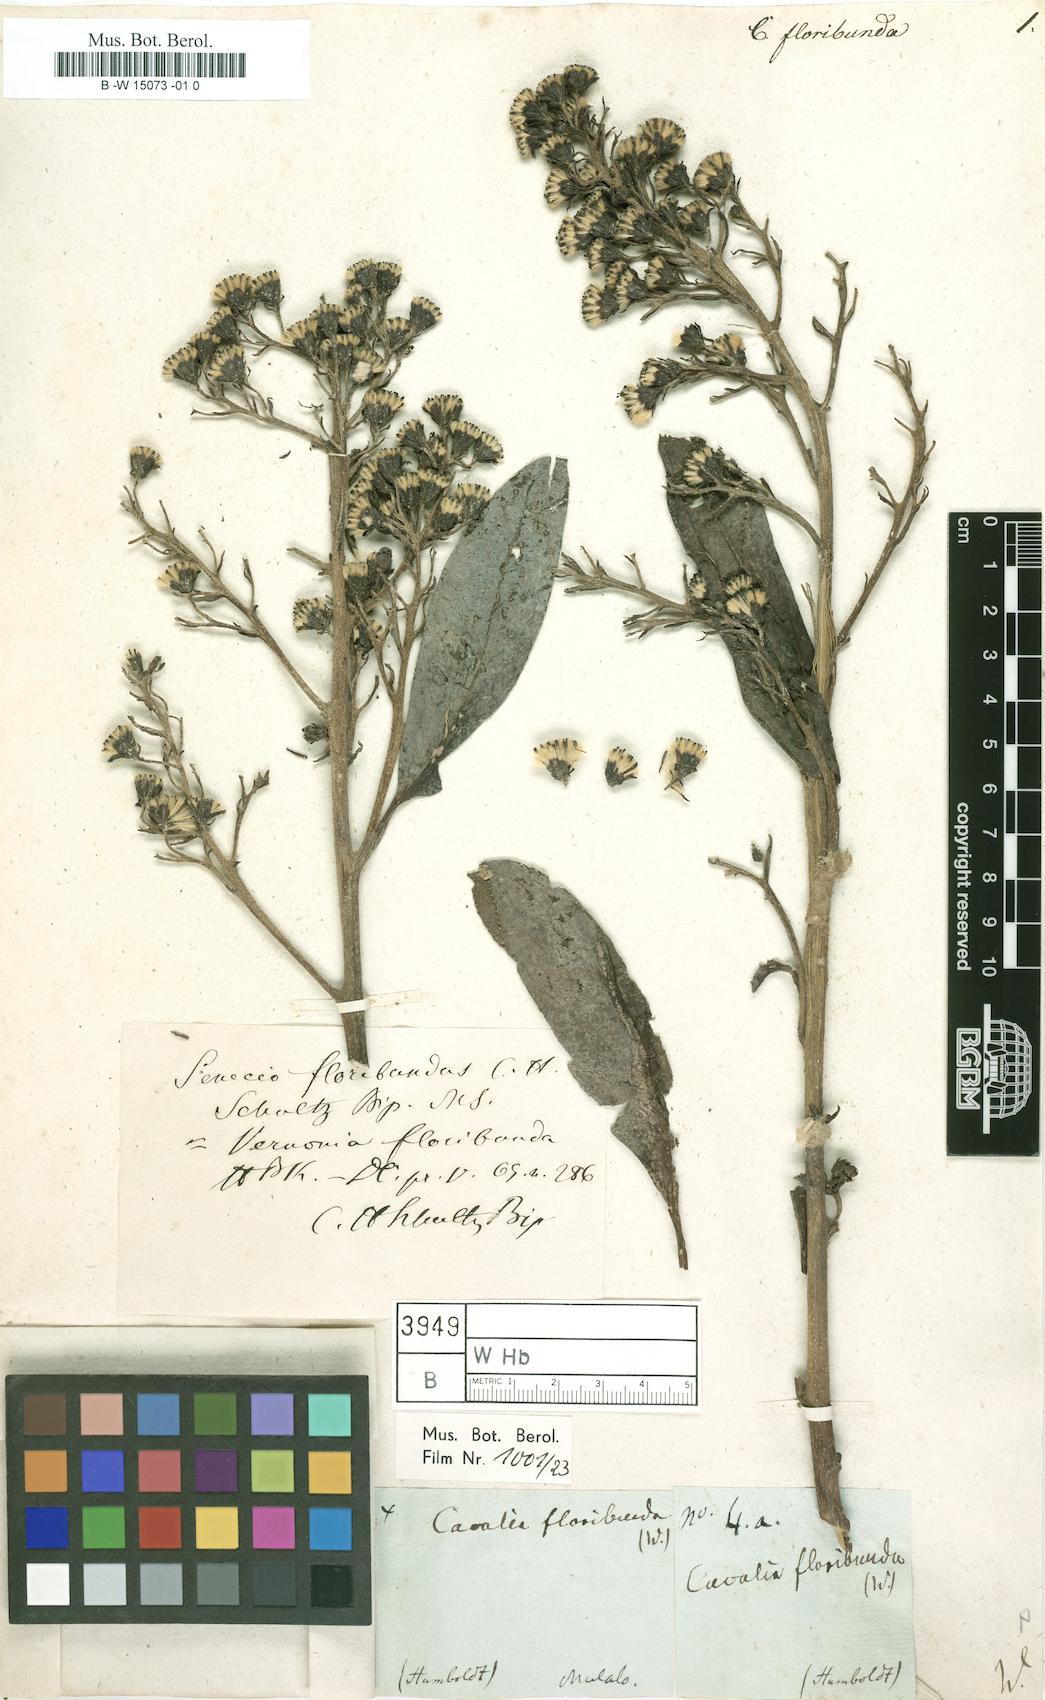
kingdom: Plantae
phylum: Tracheophyta
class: Magnoliopsida
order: Asterales
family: Asteraceae
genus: Cacalia
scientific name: Cacalia
